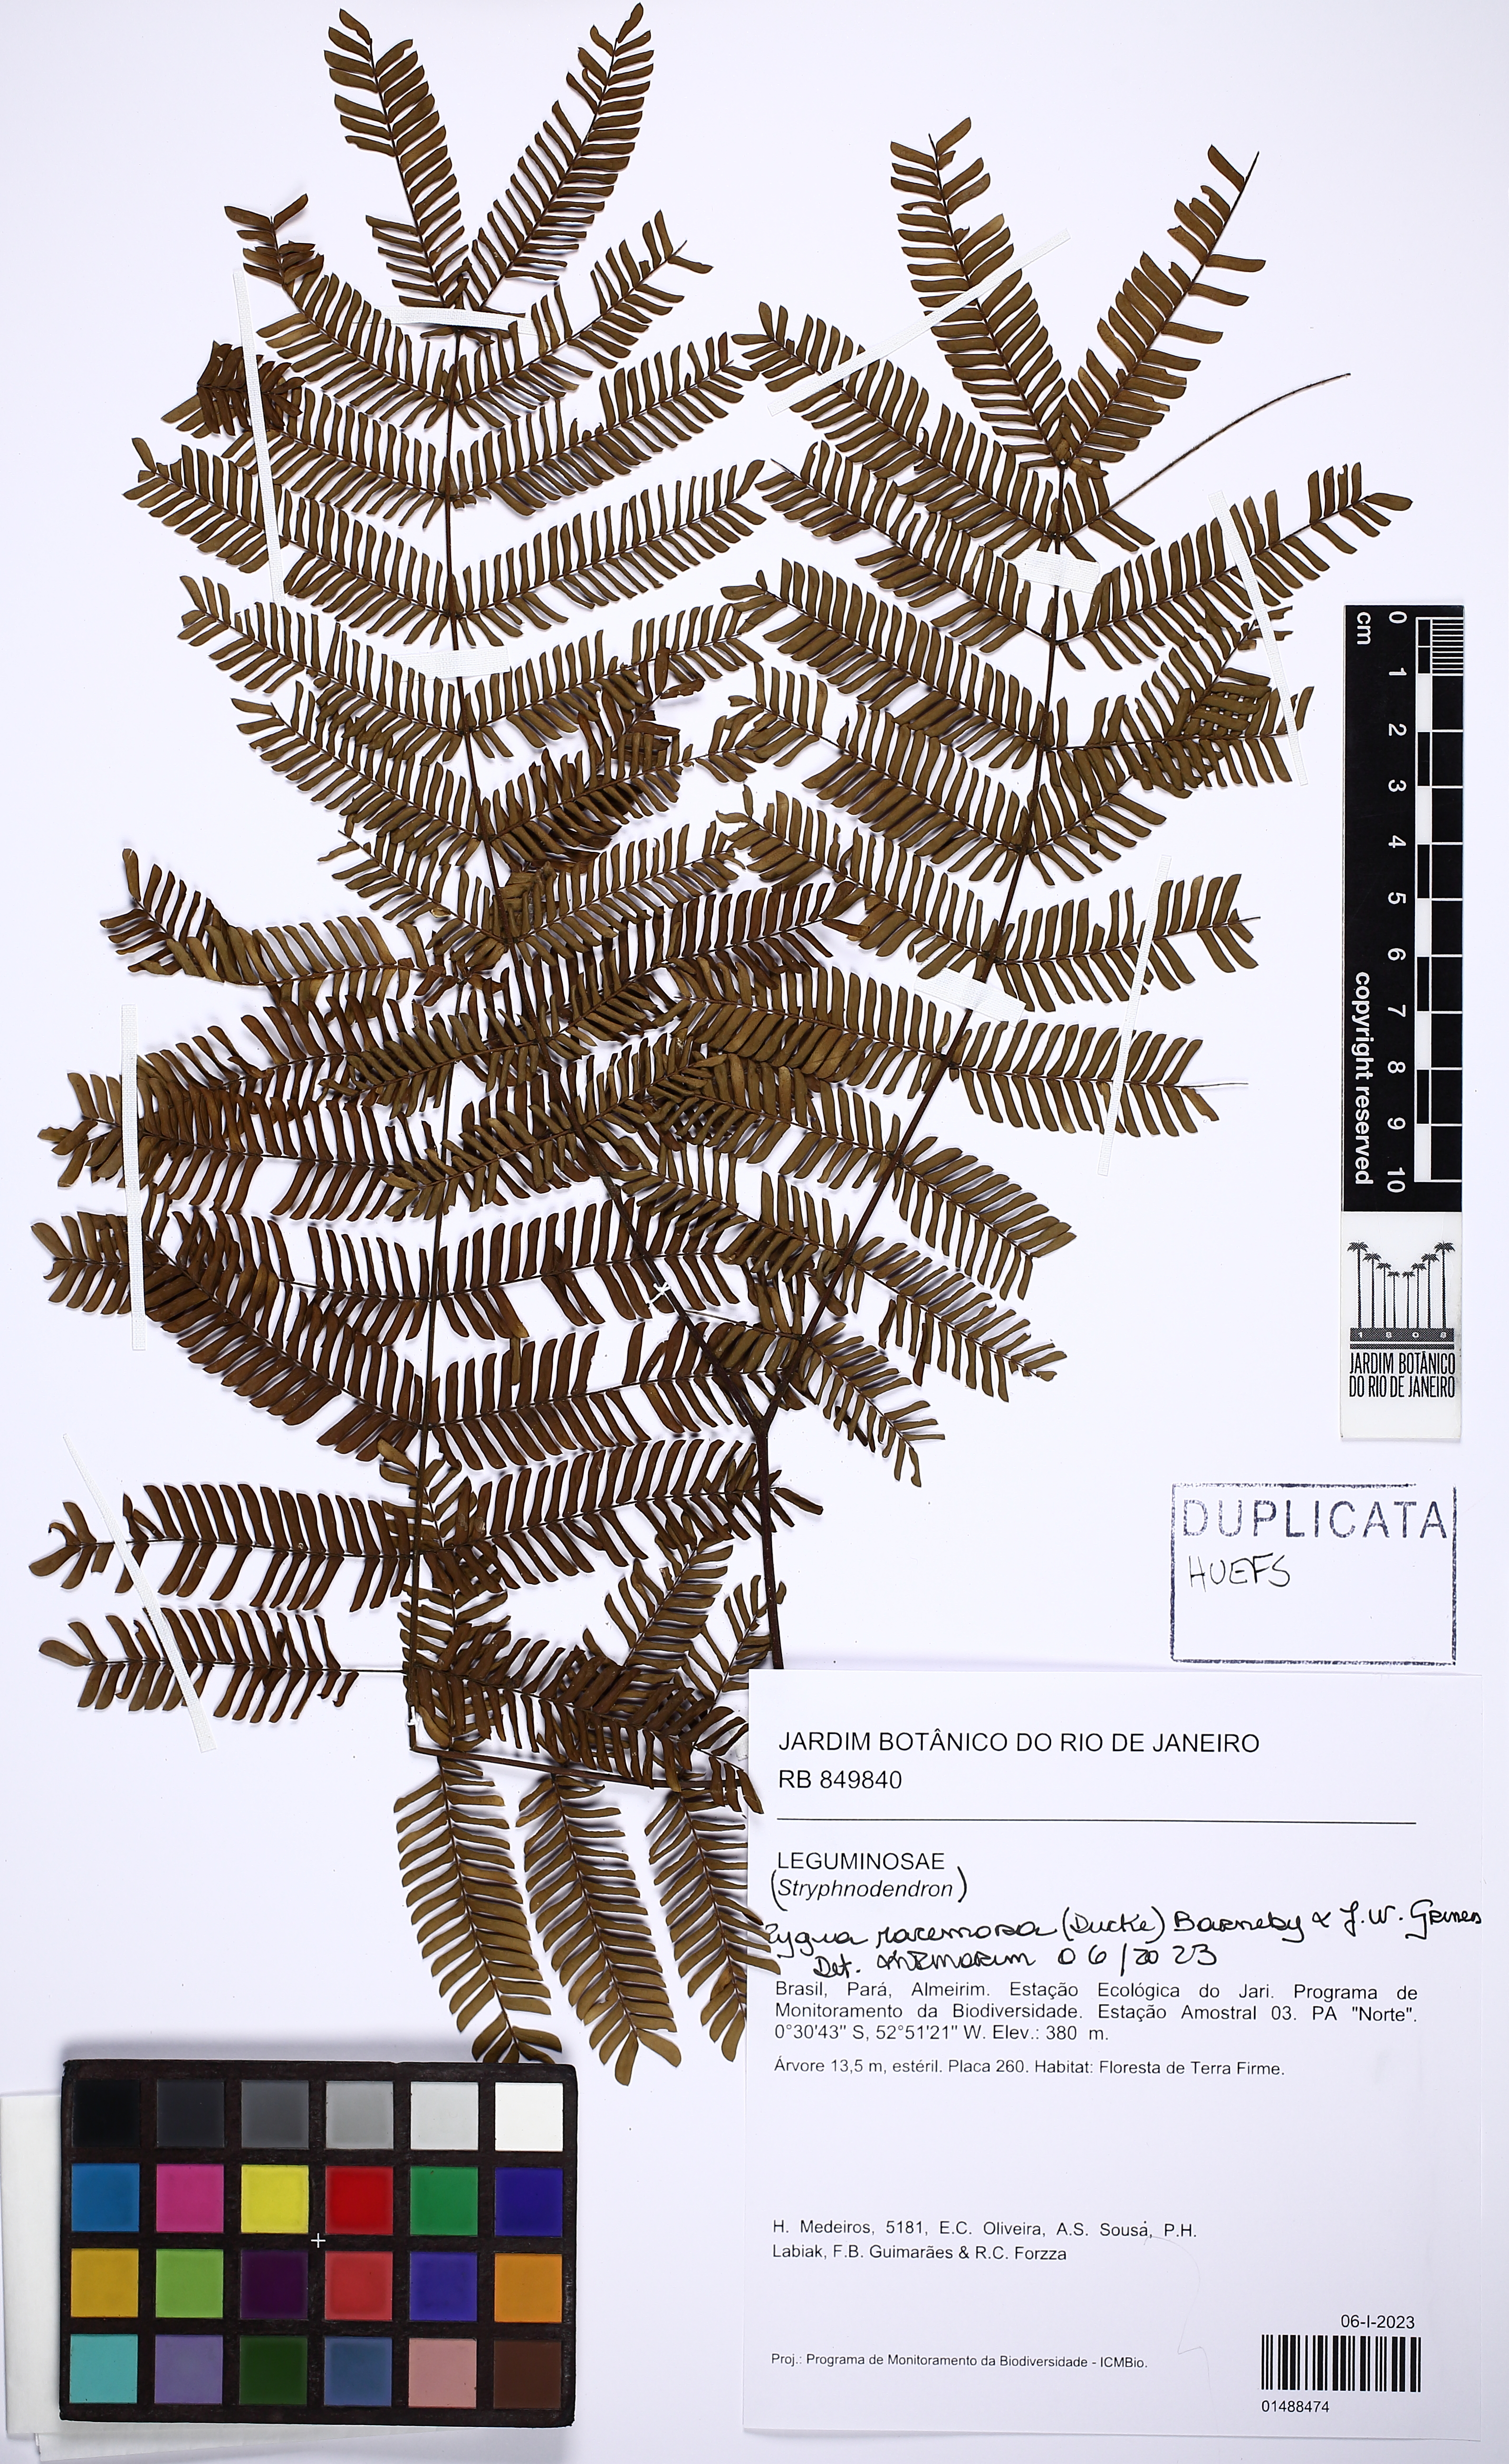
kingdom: Plantae
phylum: Tracheophyta
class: Magnoliopsida
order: Fabales
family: Fabaceae
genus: Zygia
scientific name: Zygia racemosa
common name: Marblewood
